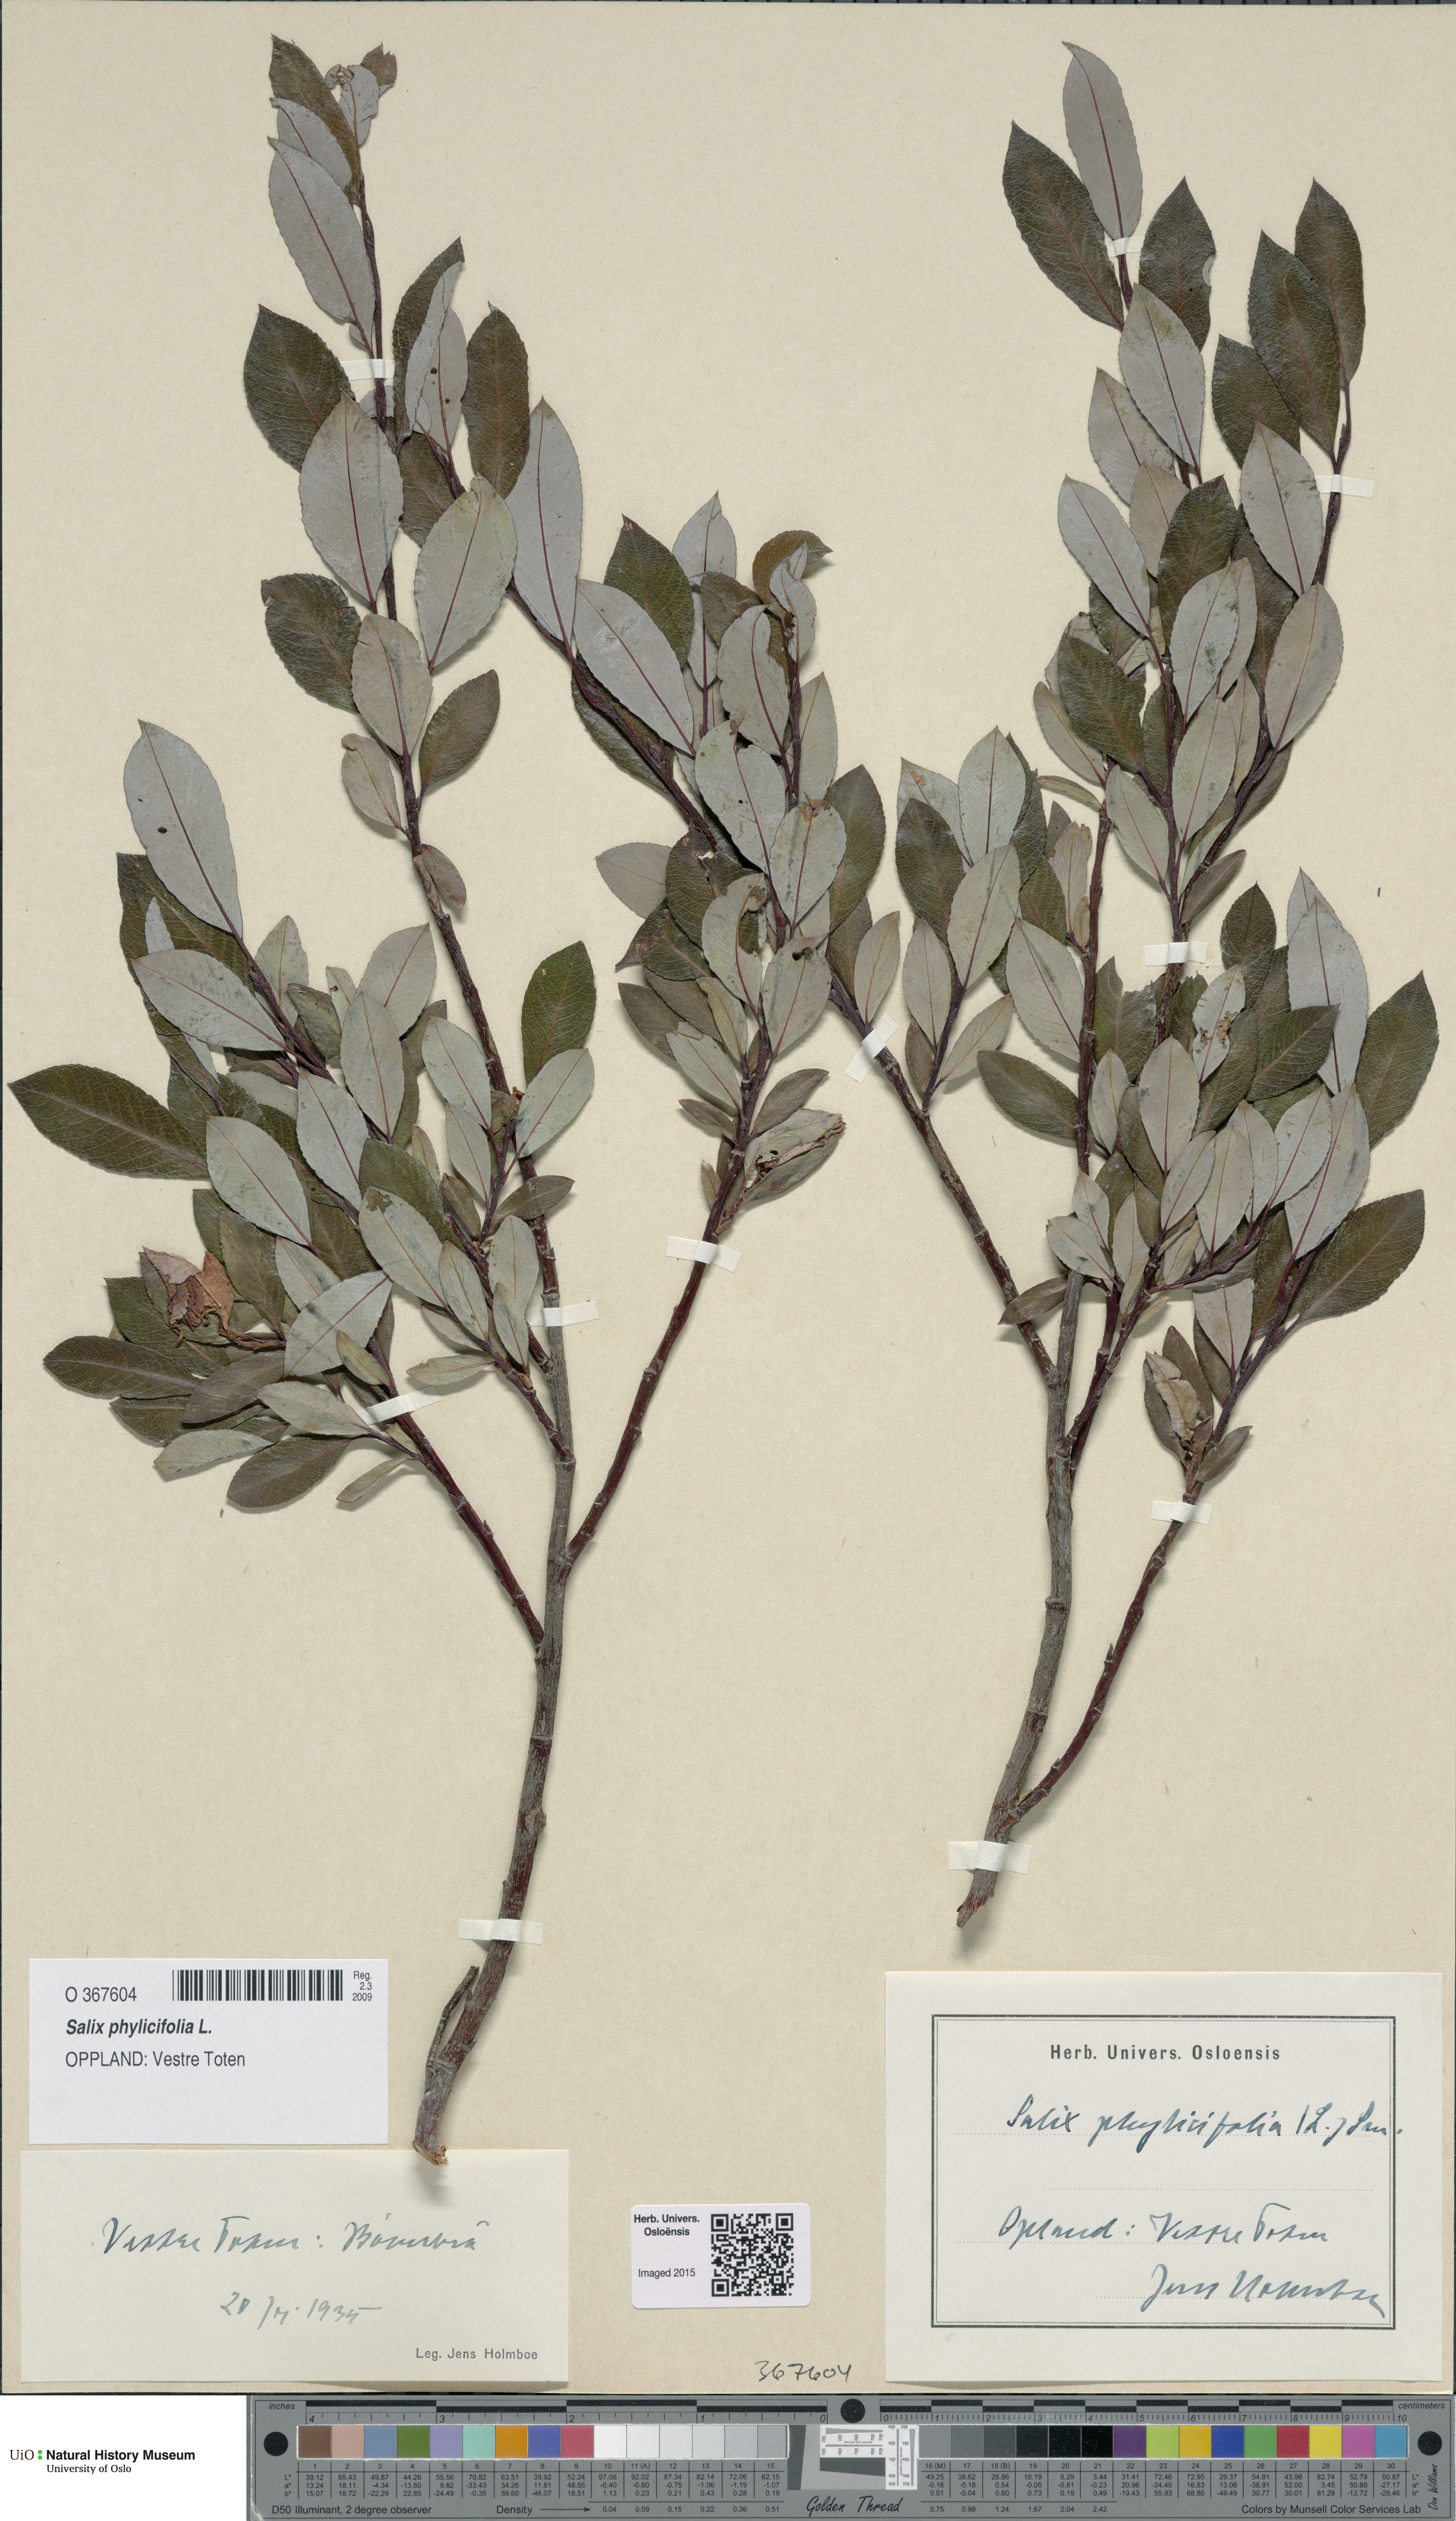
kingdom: Plantae
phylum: Tracheophyta
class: Magnoliopsida
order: Malpighiales
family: Salicaceae
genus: Salix
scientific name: Salix phylicifolia
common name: Tea-leaved willow
